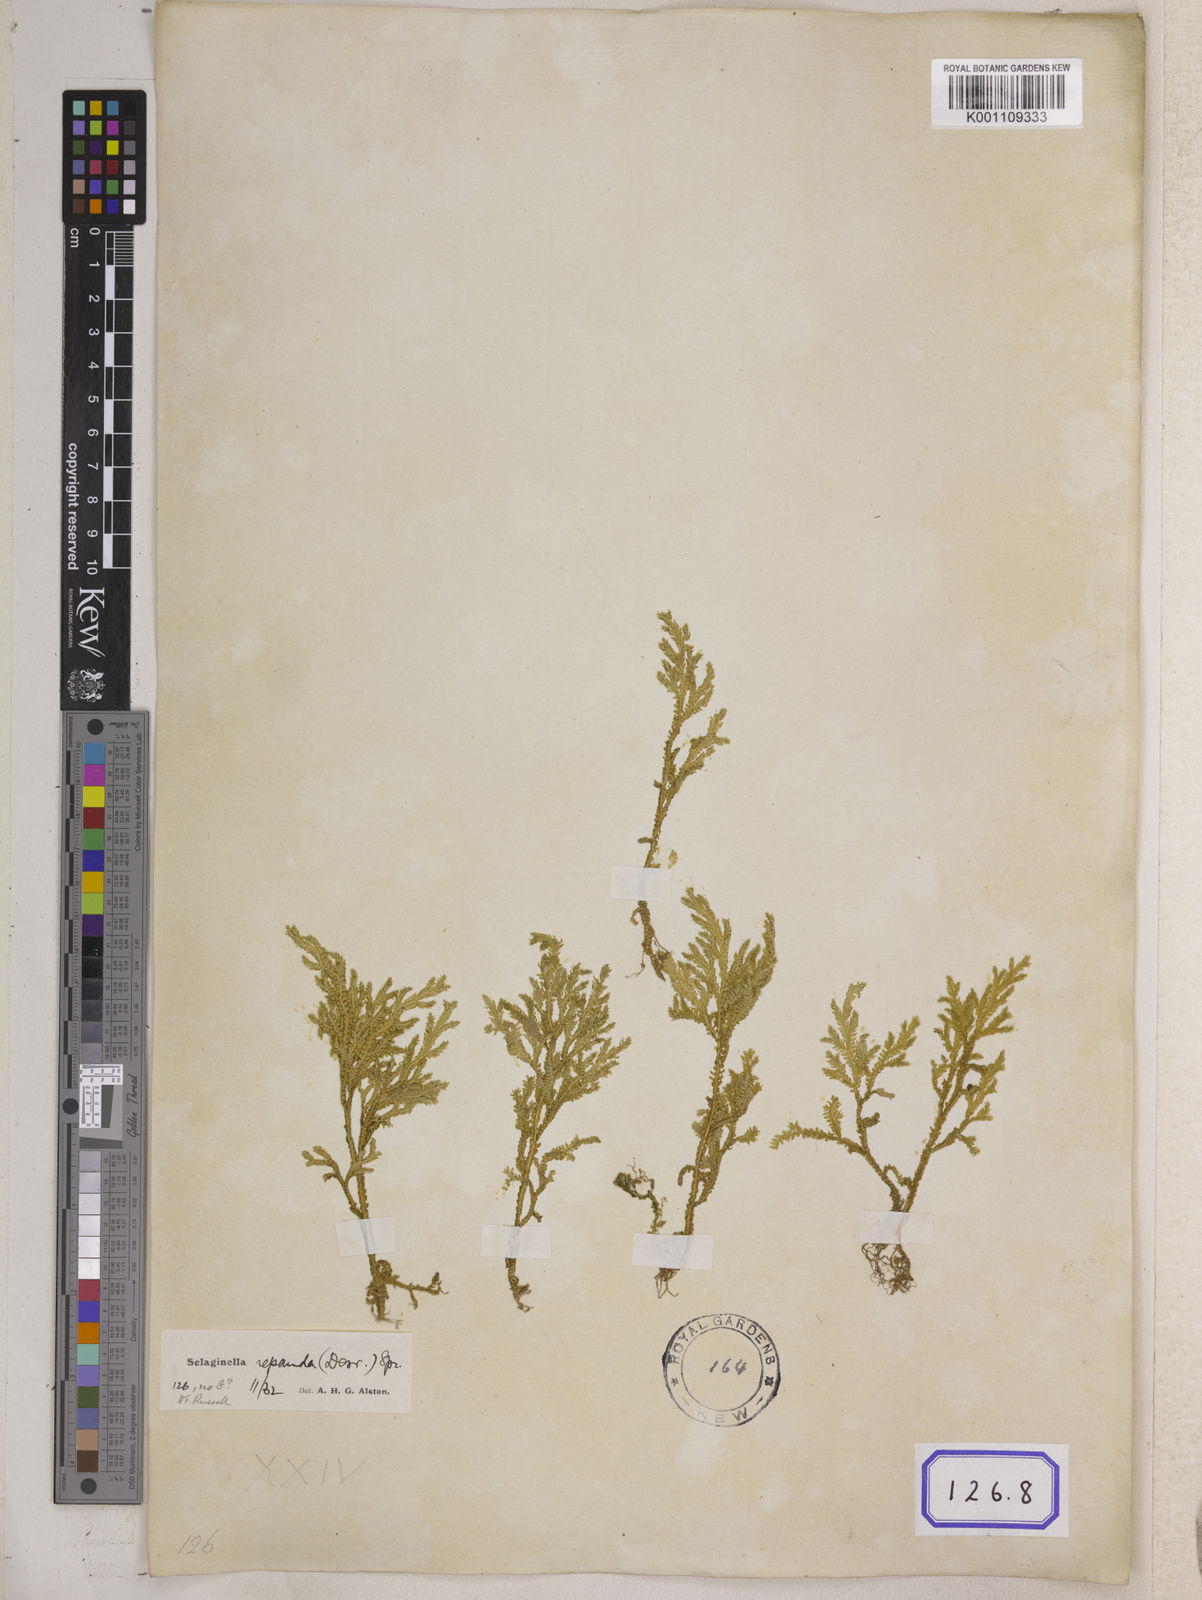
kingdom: Plantae
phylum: Tracheophyta
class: Lycopodiopsida
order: Selaginellales
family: Selaginellaceae
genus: Selaginella
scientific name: Selaginella semicordata
